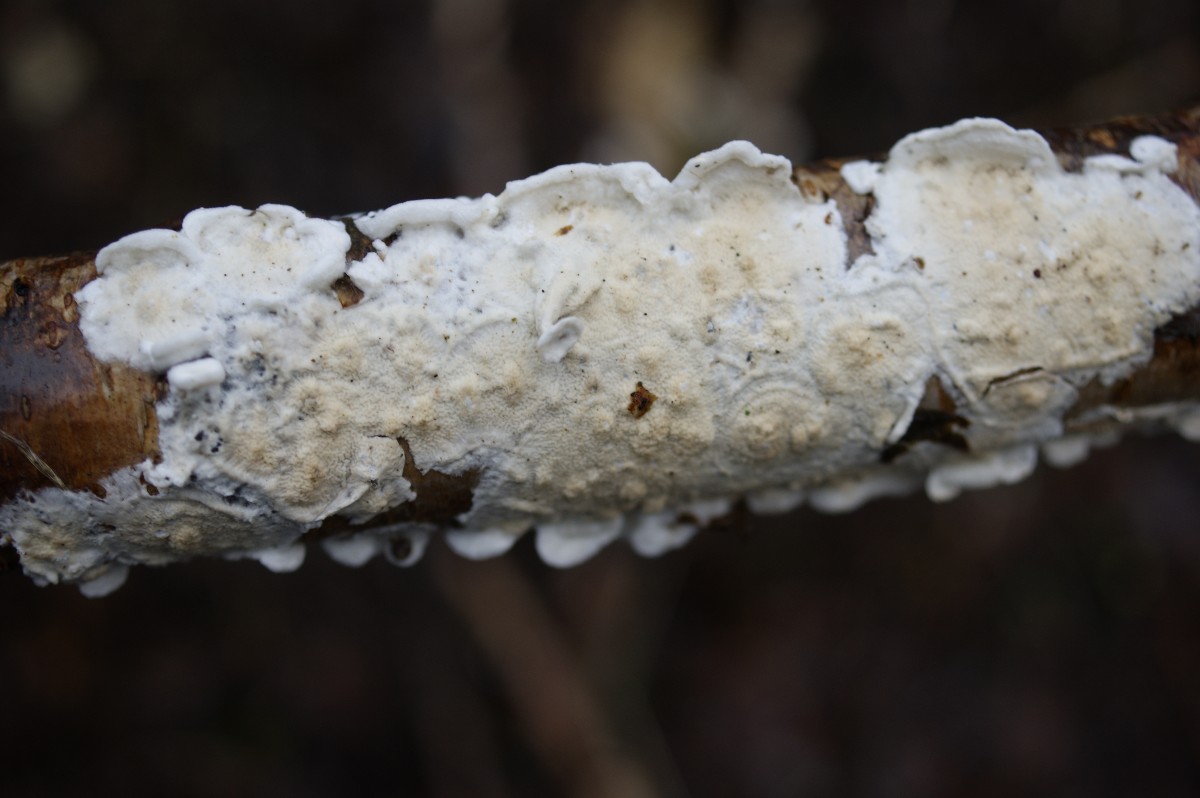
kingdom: Fungi
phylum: Basidiomycota
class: Agaricomycetes
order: Polyporales
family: Irpicaceae
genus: Byssomerulius
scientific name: Byssomerulius corium
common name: læder-åresvamp
